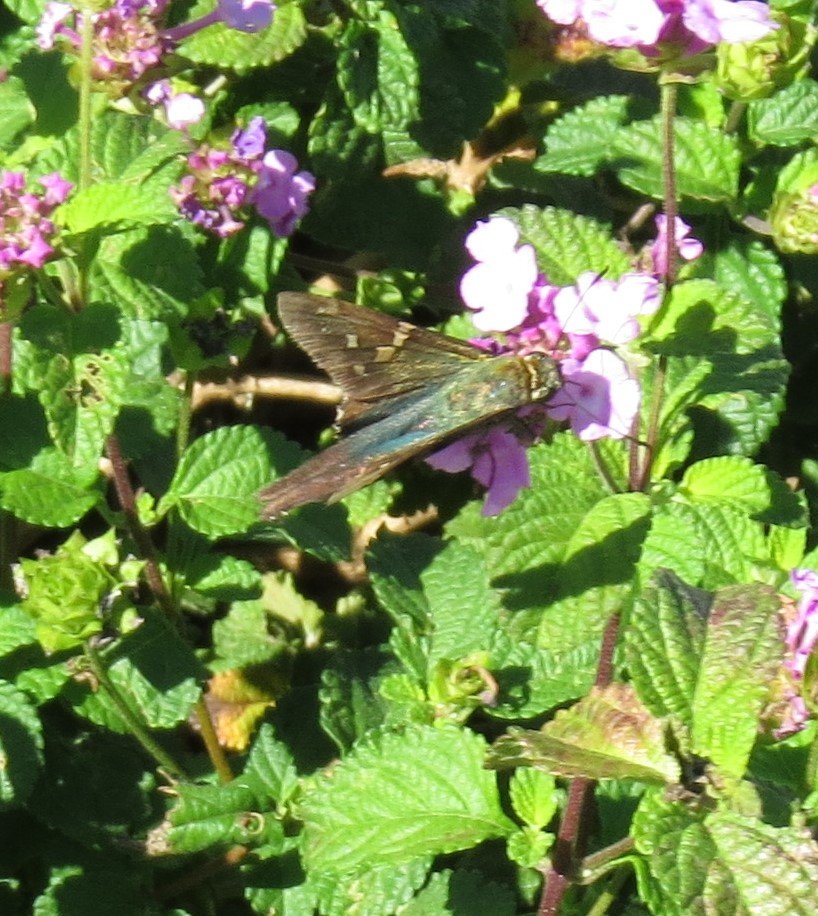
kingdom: Animalia
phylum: Arthropoda
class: Insecta
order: Lepidoptera
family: Hesperiidae
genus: Urbanus
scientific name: Urbanus proteus
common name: Long-tailed Skipper
